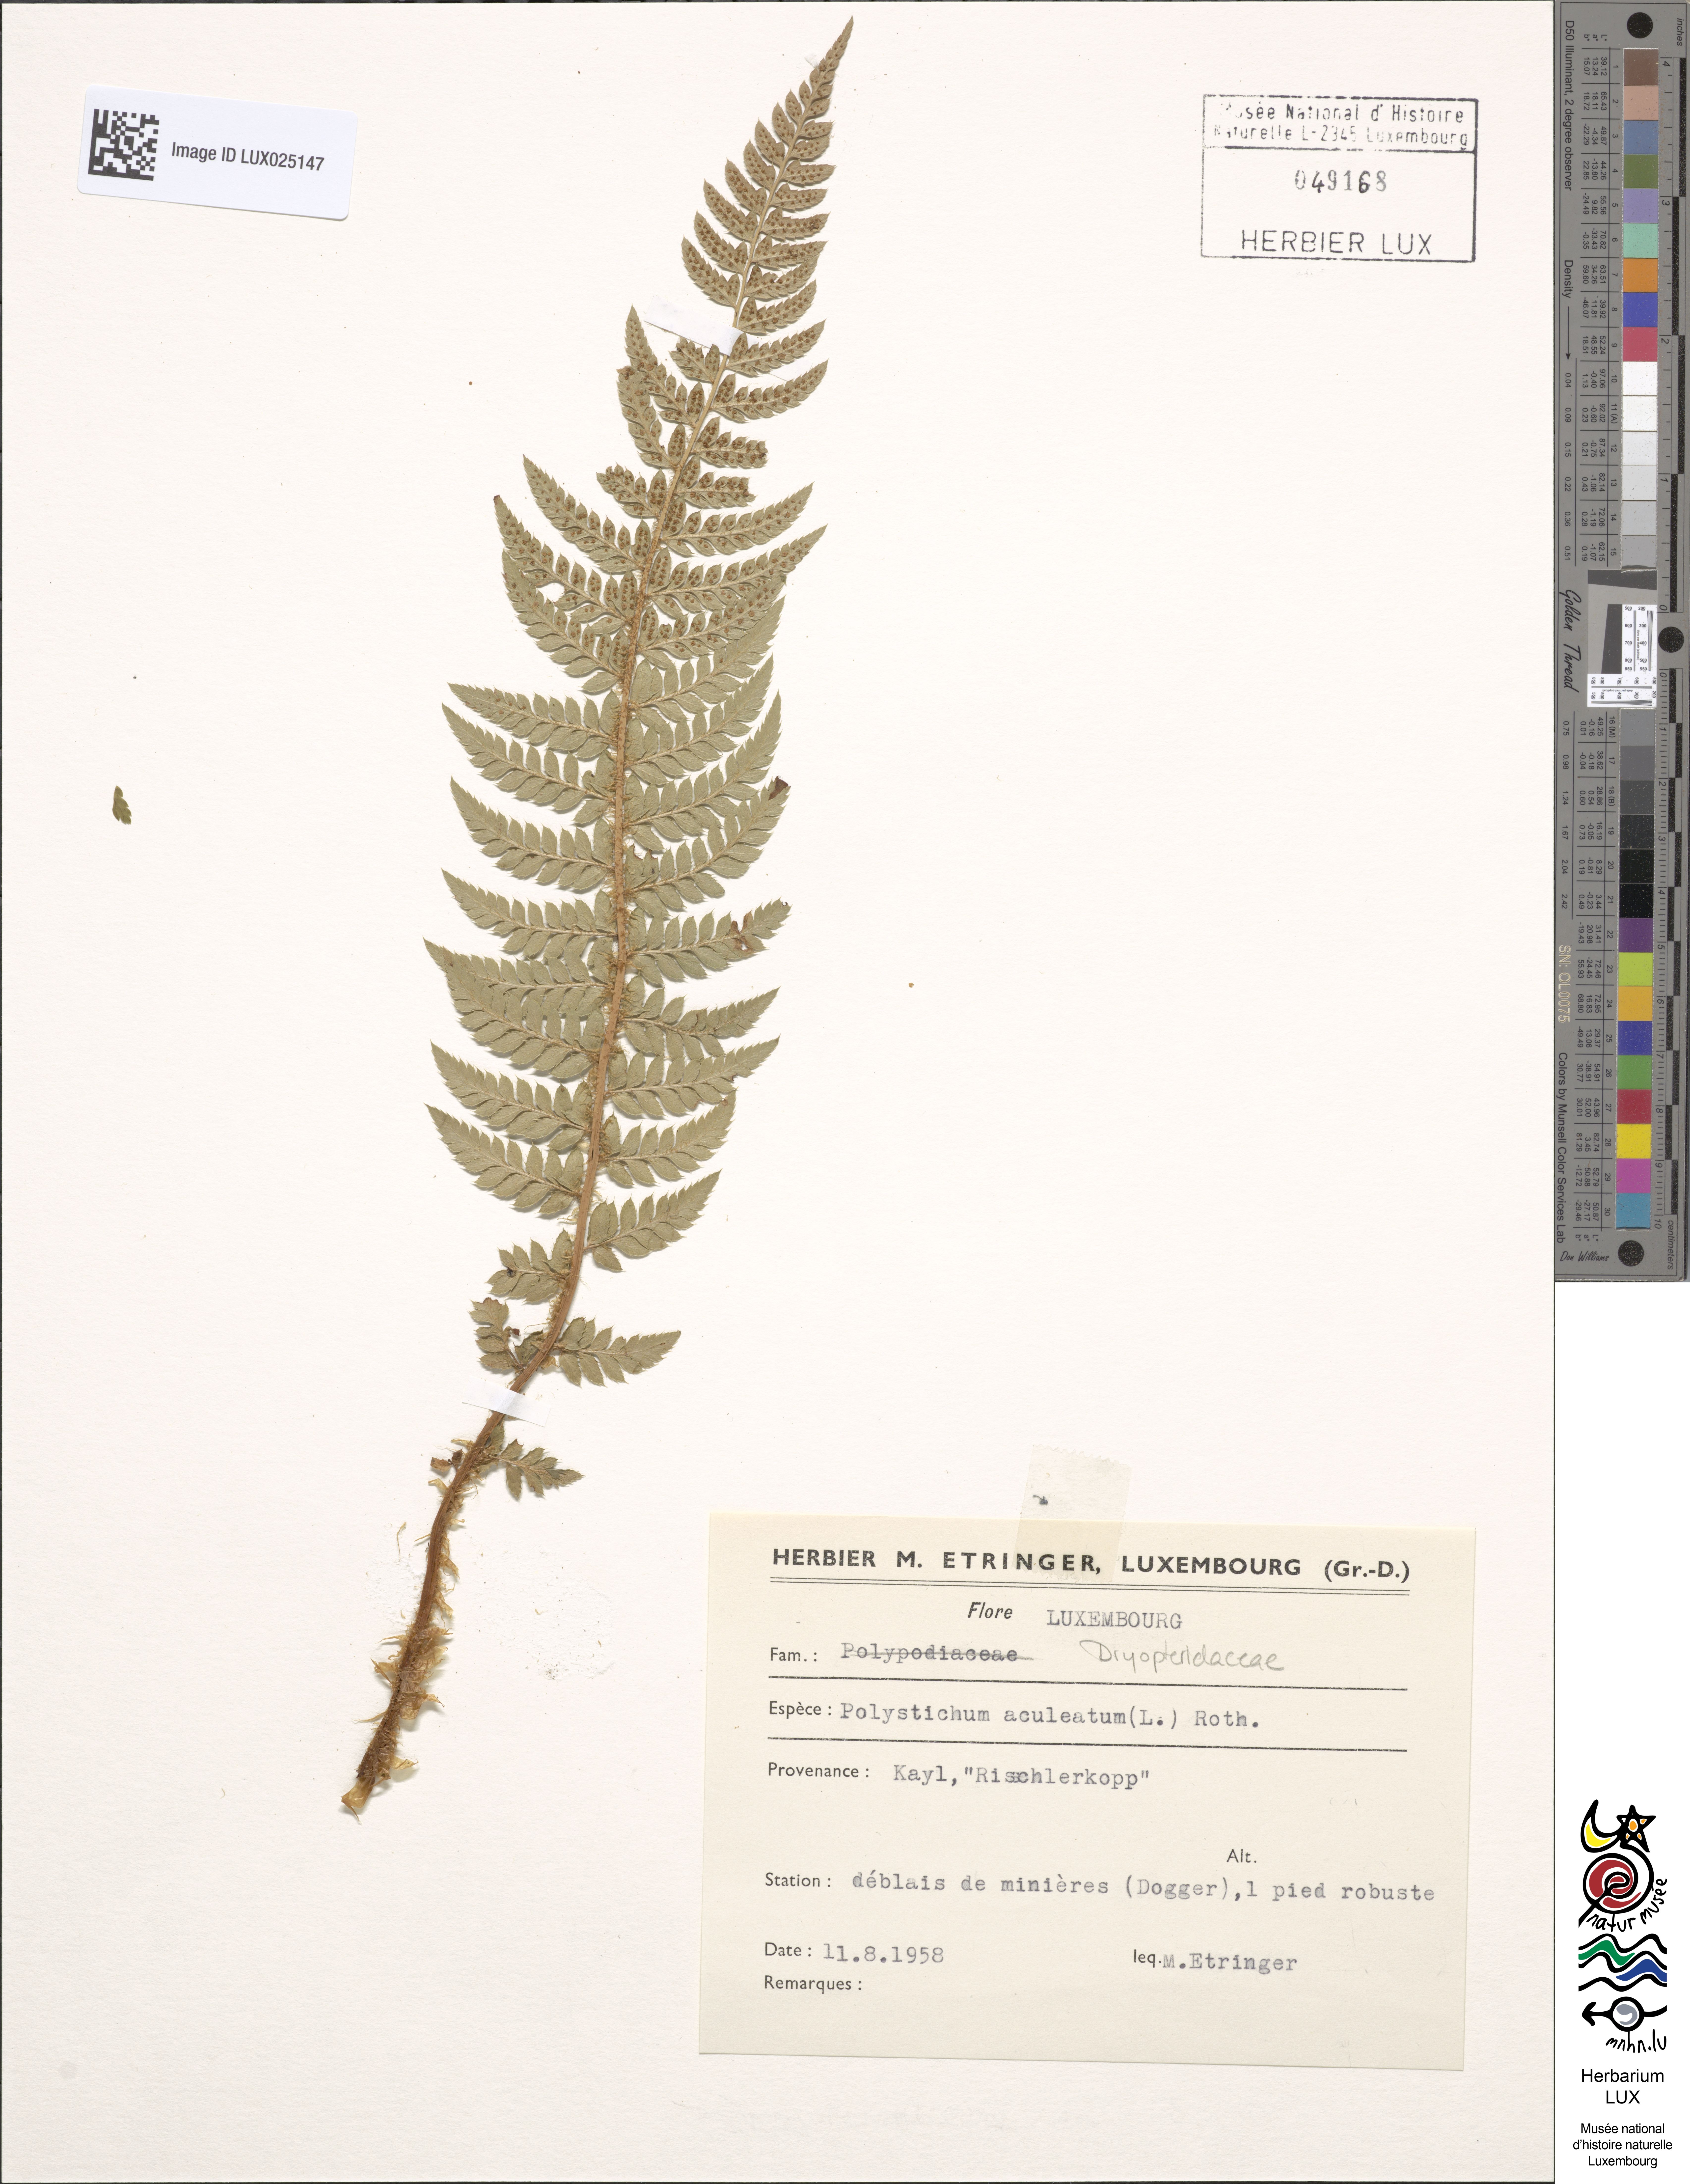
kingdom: Plantae
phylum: Tracheophyta
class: Polypodiopsida
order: Polypodiales
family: Dryopteridaceae
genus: Polystichum
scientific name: Polystichum aculeatum
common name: Hard shield-fern
